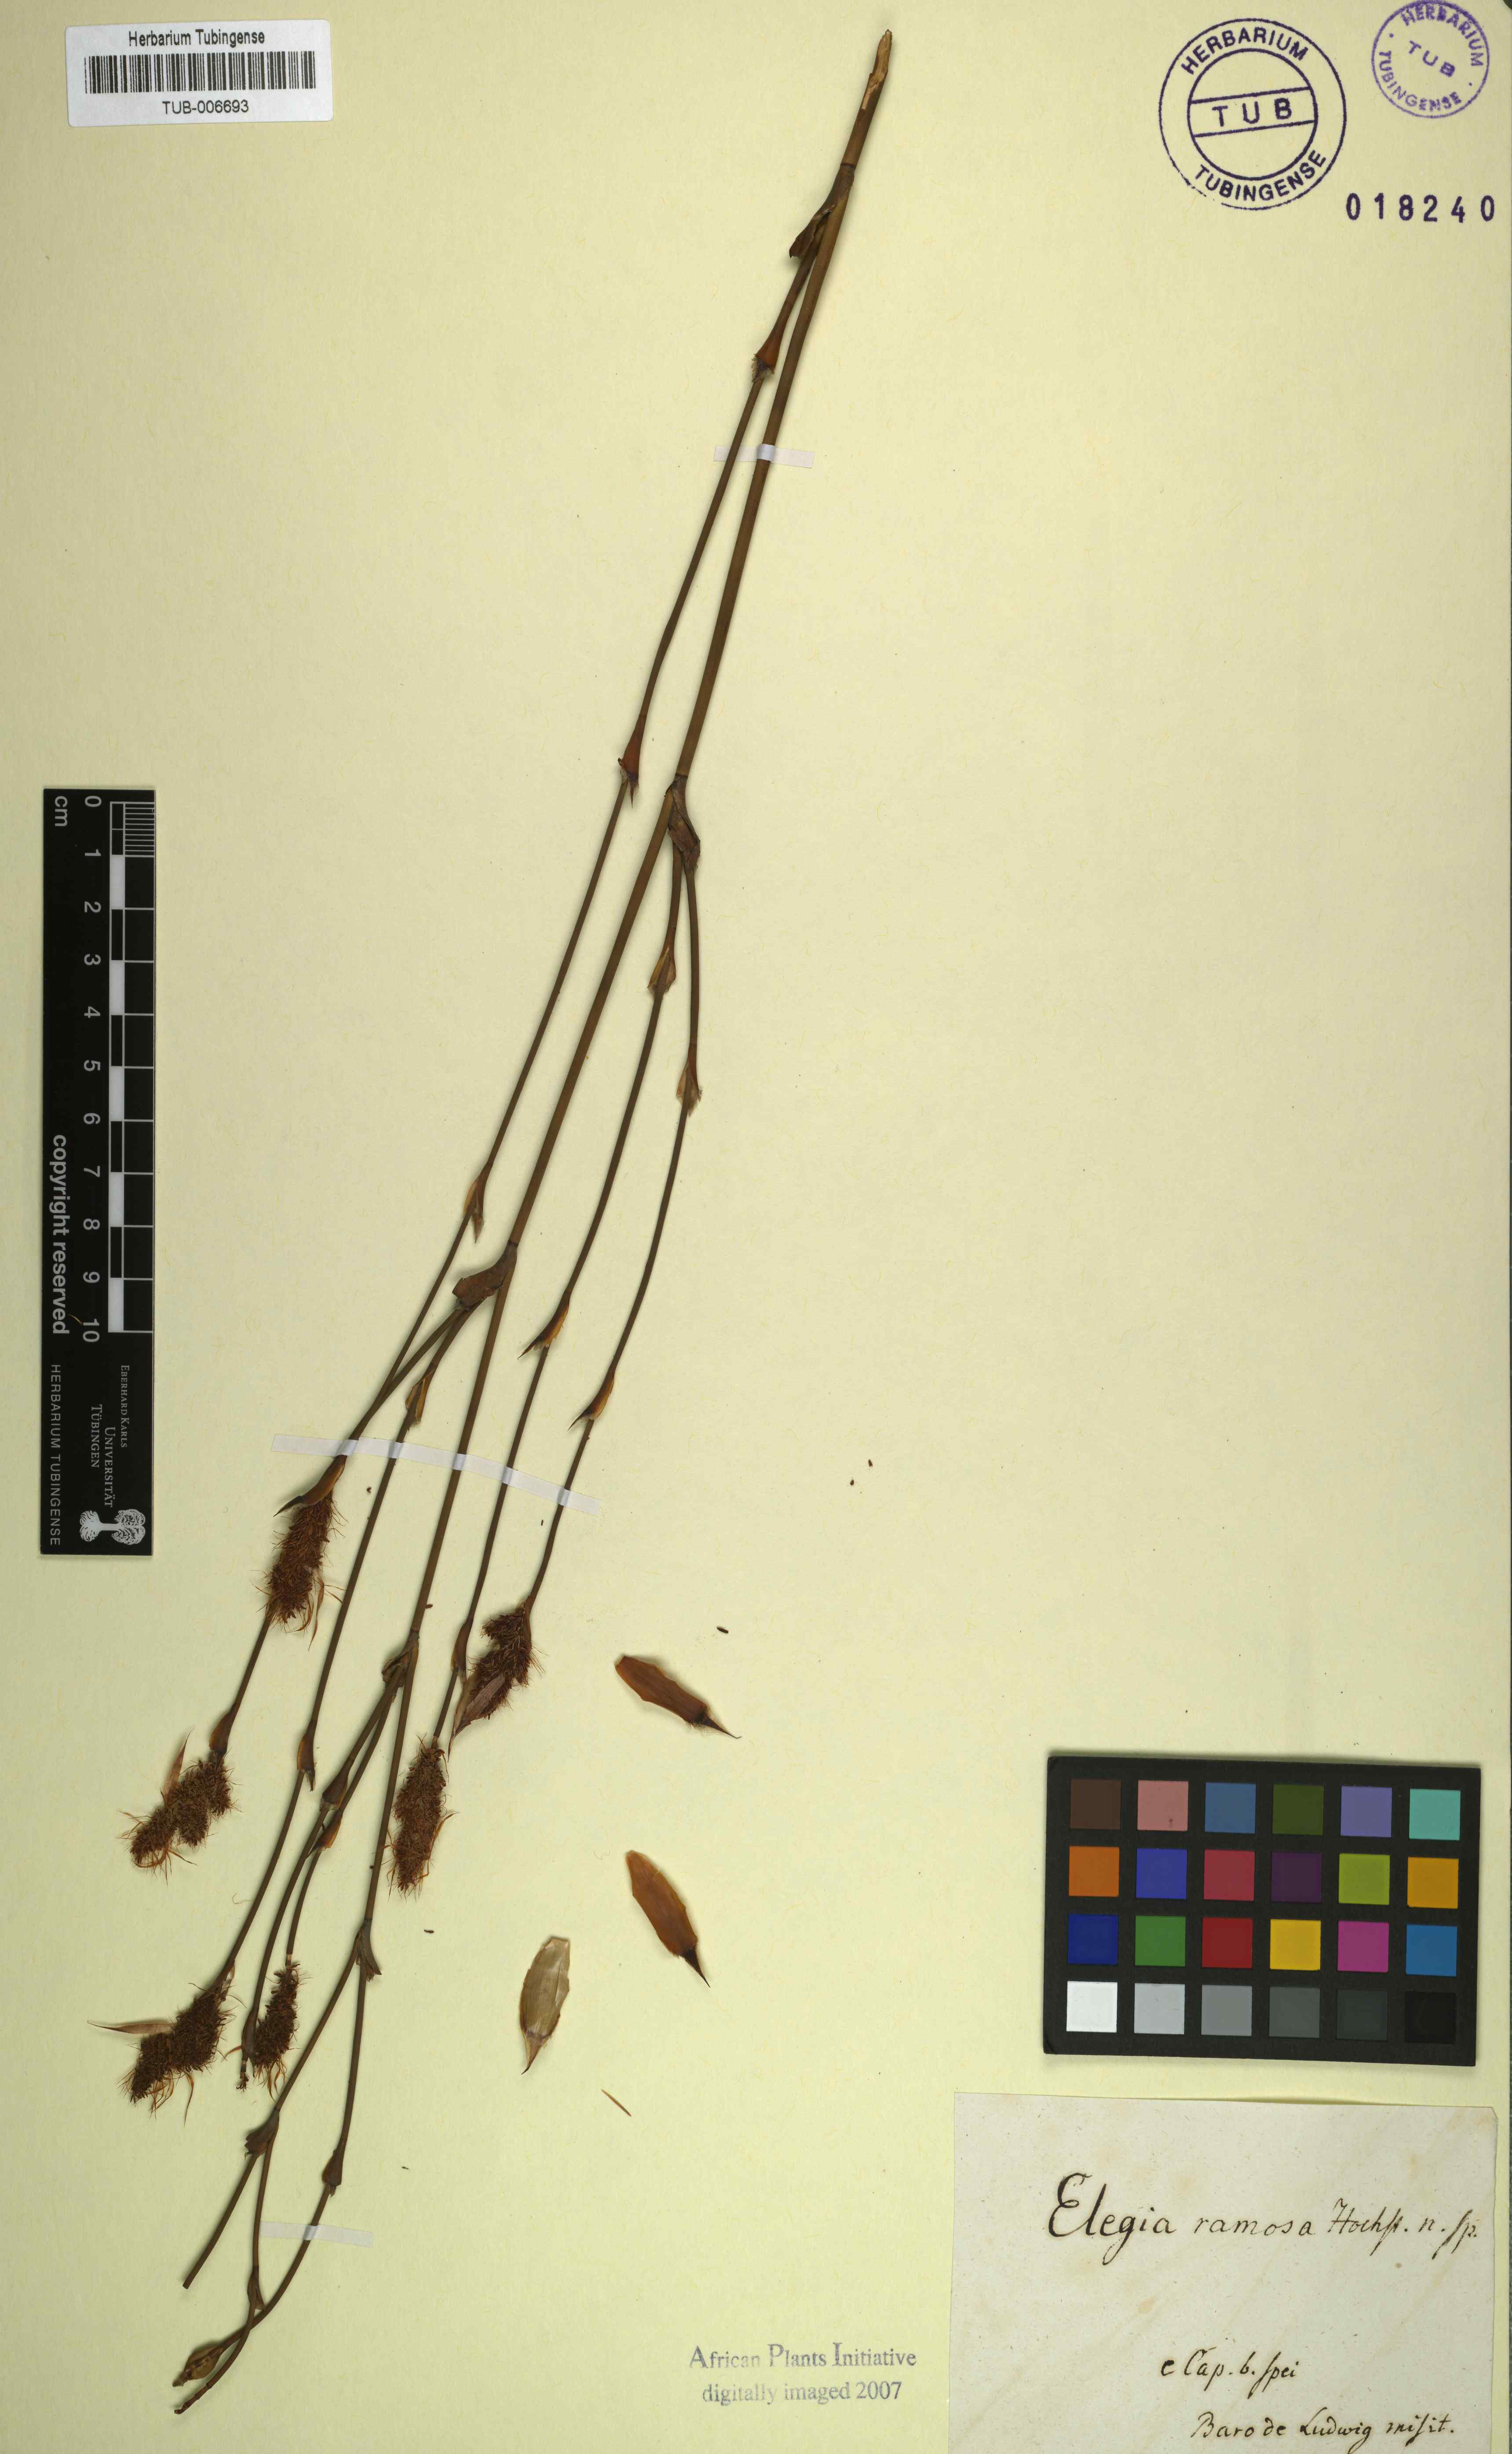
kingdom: Plantae
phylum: Tracheophyta
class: Liliopsida
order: Poales
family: Restionaceae
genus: Elegia
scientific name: Elegia
